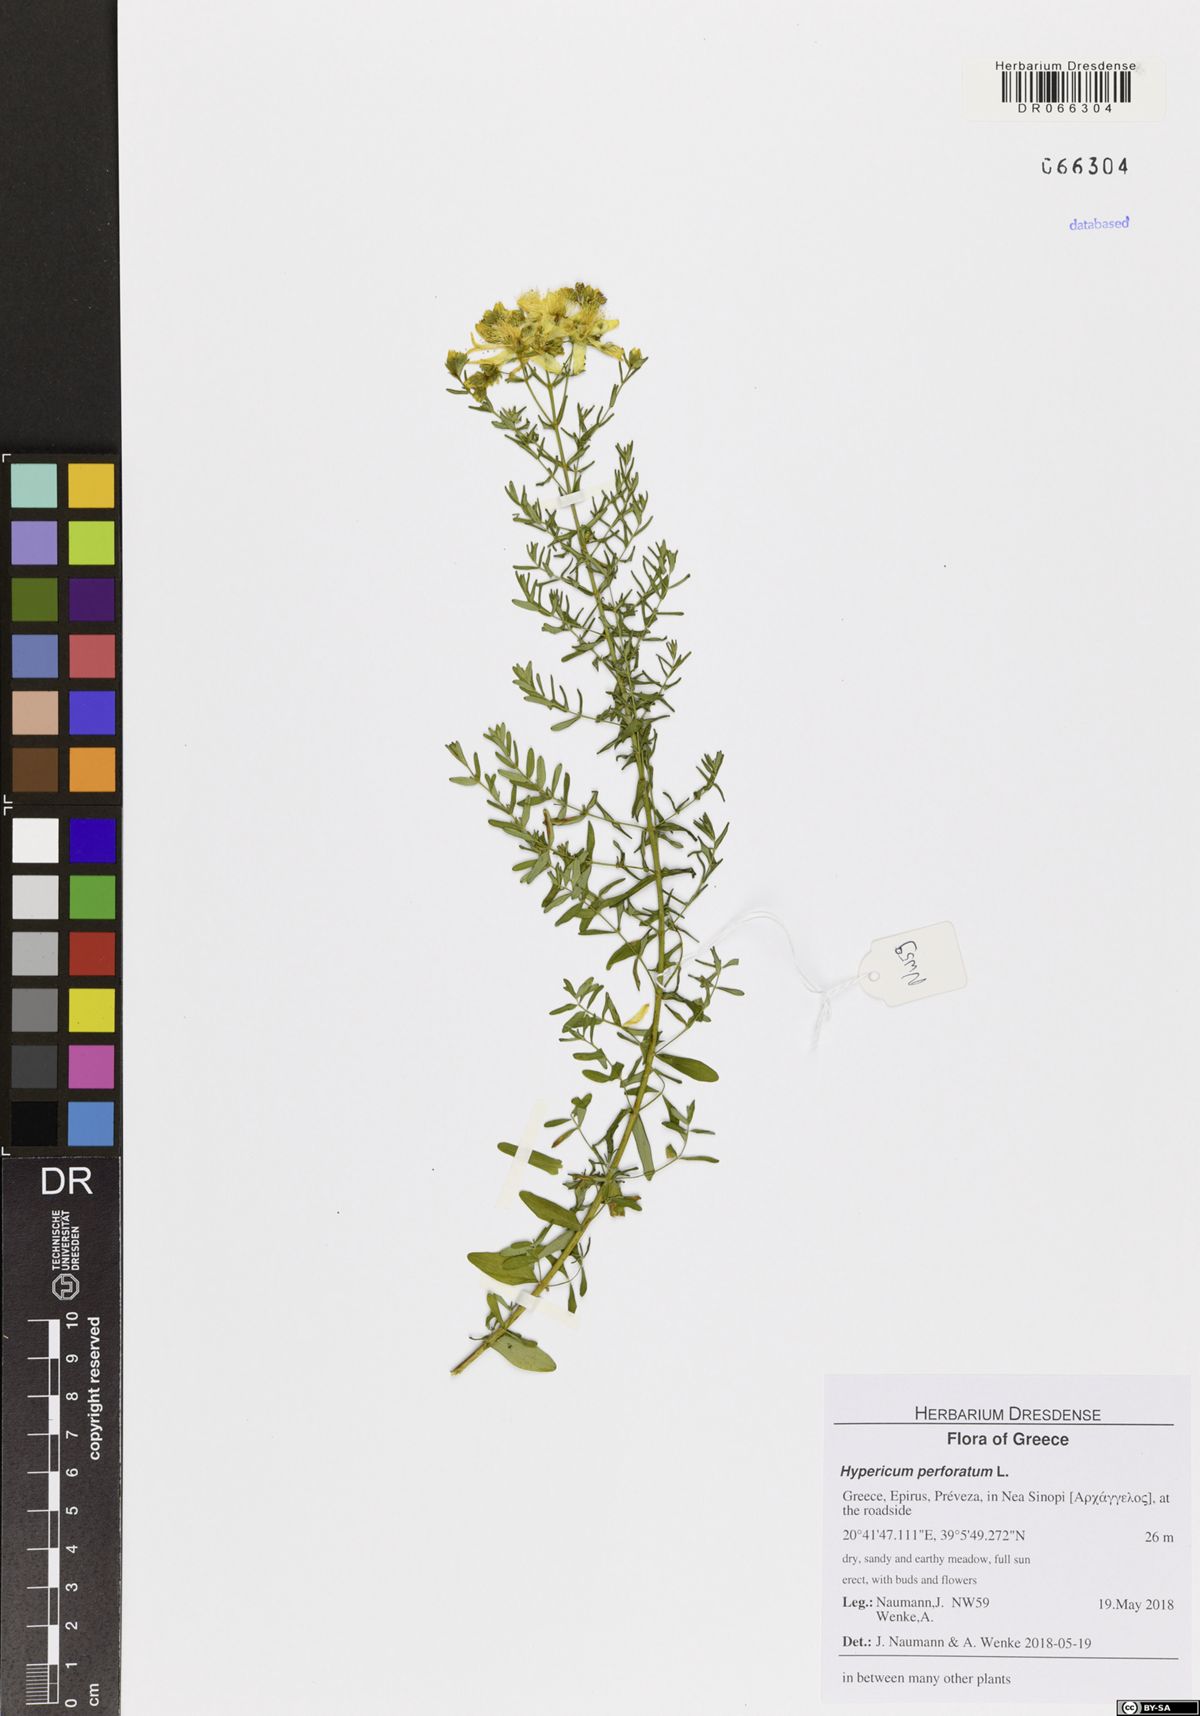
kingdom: Plantae
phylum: Tracheophyta
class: Magnoliopsida
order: Malpighiales
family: Hypericaceae
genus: Hypericum
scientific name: Hypericum perforatum
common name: Common st. johnswort
